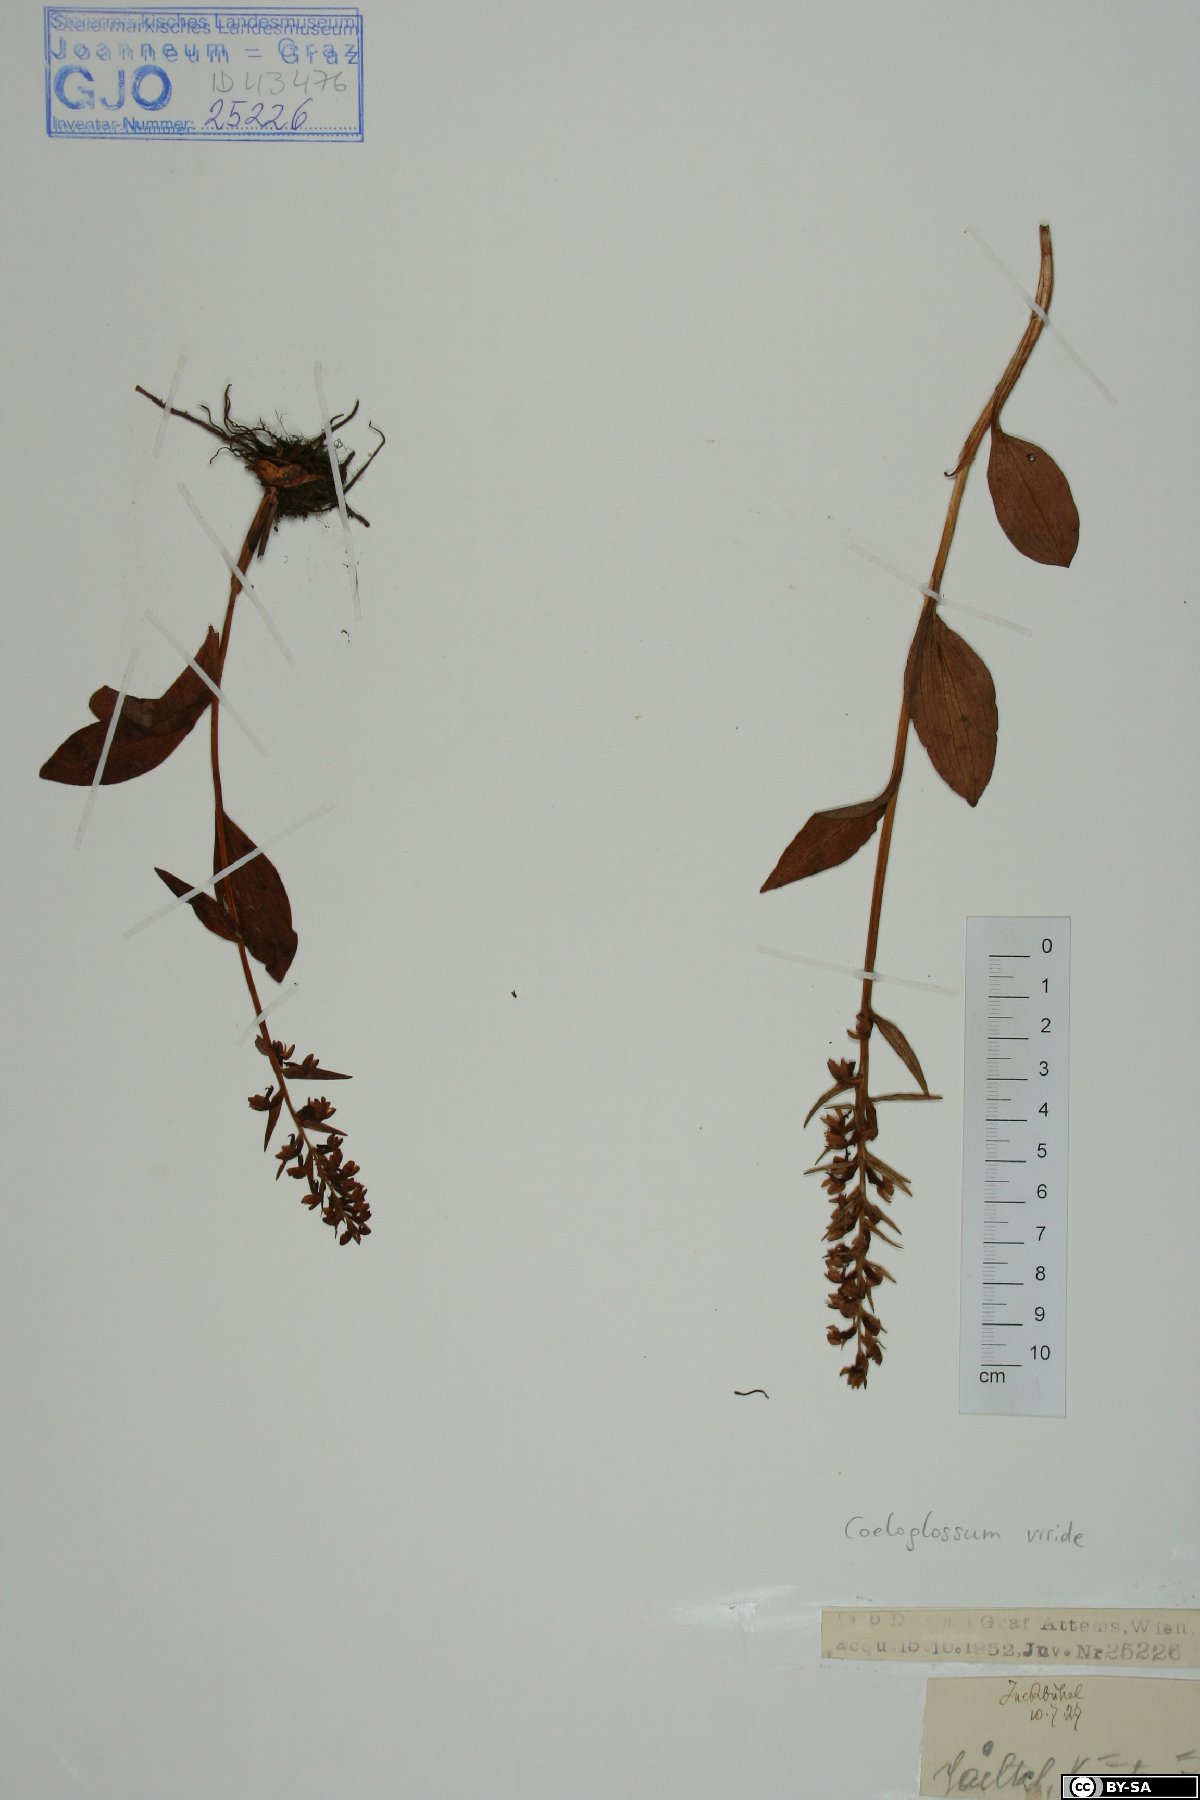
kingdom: Plantae
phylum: Tracheophyta
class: Liliopsida
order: Asparagales
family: Orchidaceae
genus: Dactylorhiza
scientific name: Dactylorhiza viridis
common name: Longbract frog orchid
